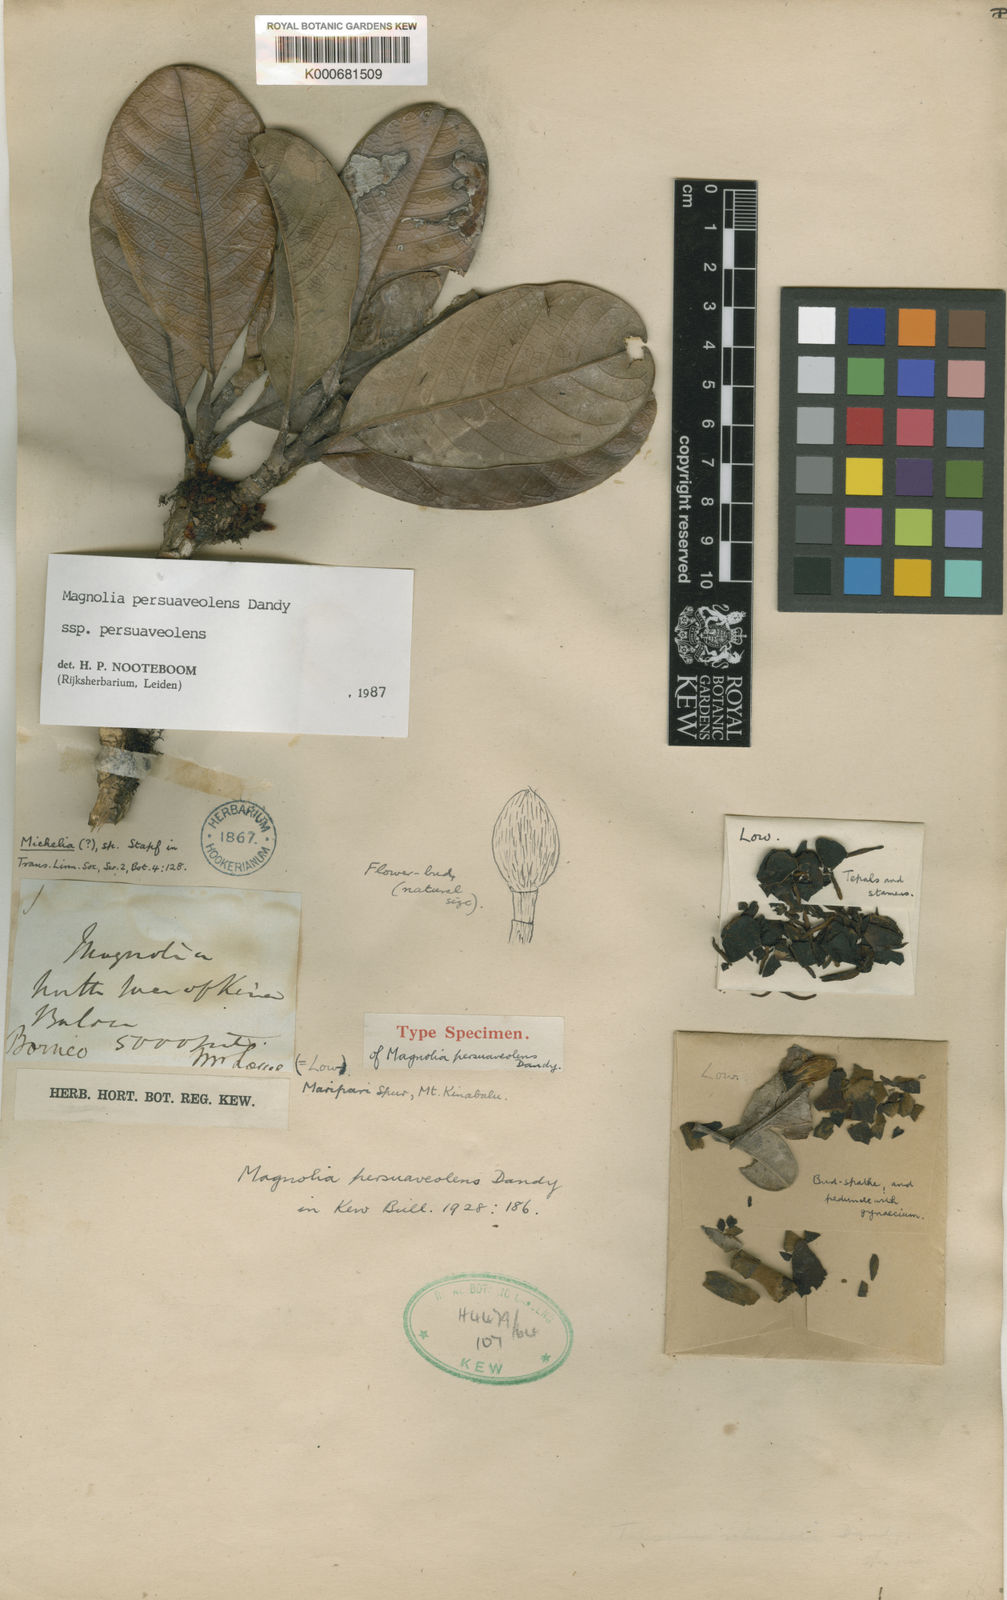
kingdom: Plantae
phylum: Tracheophyta
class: Magnoliopsida
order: Magnoliales
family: Magnoliaceae
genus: Magnolia
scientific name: Magnolia persuaveolens
